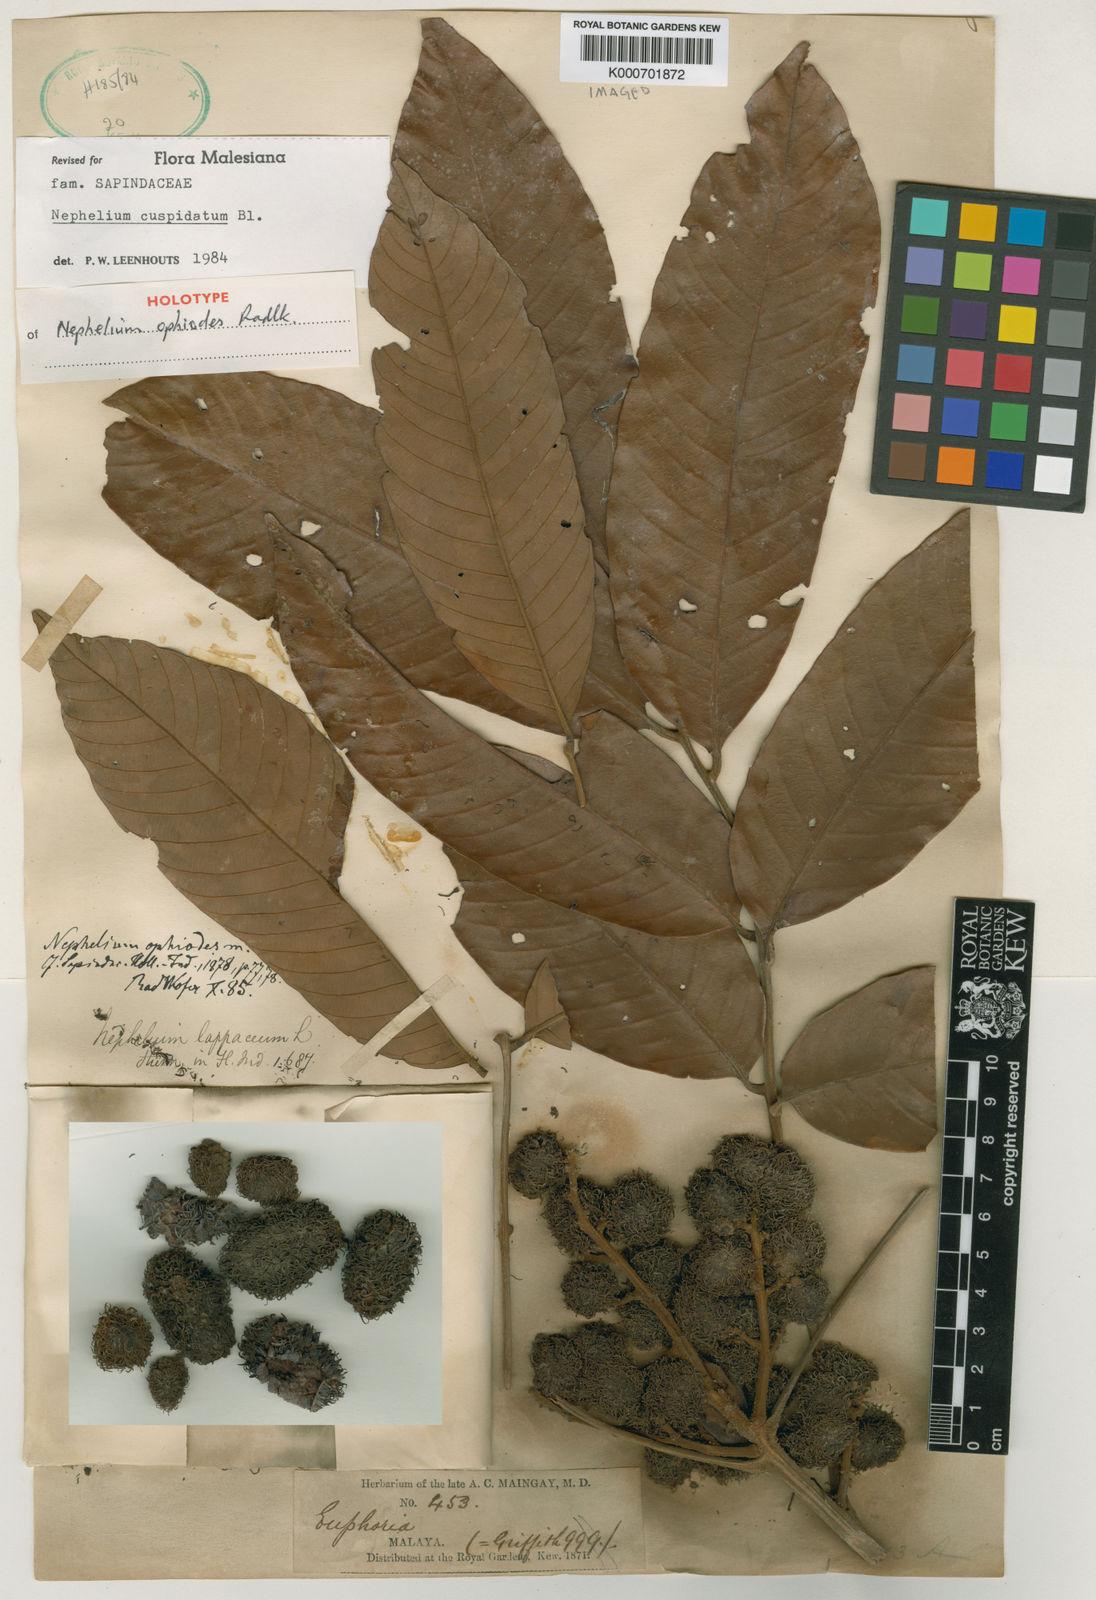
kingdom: Plantae
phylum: Tracheophyta
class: Magnoliopsida
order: Sapindales
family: Sapindaceae
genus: Nephelium
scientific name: Nephelium cuspidatum
